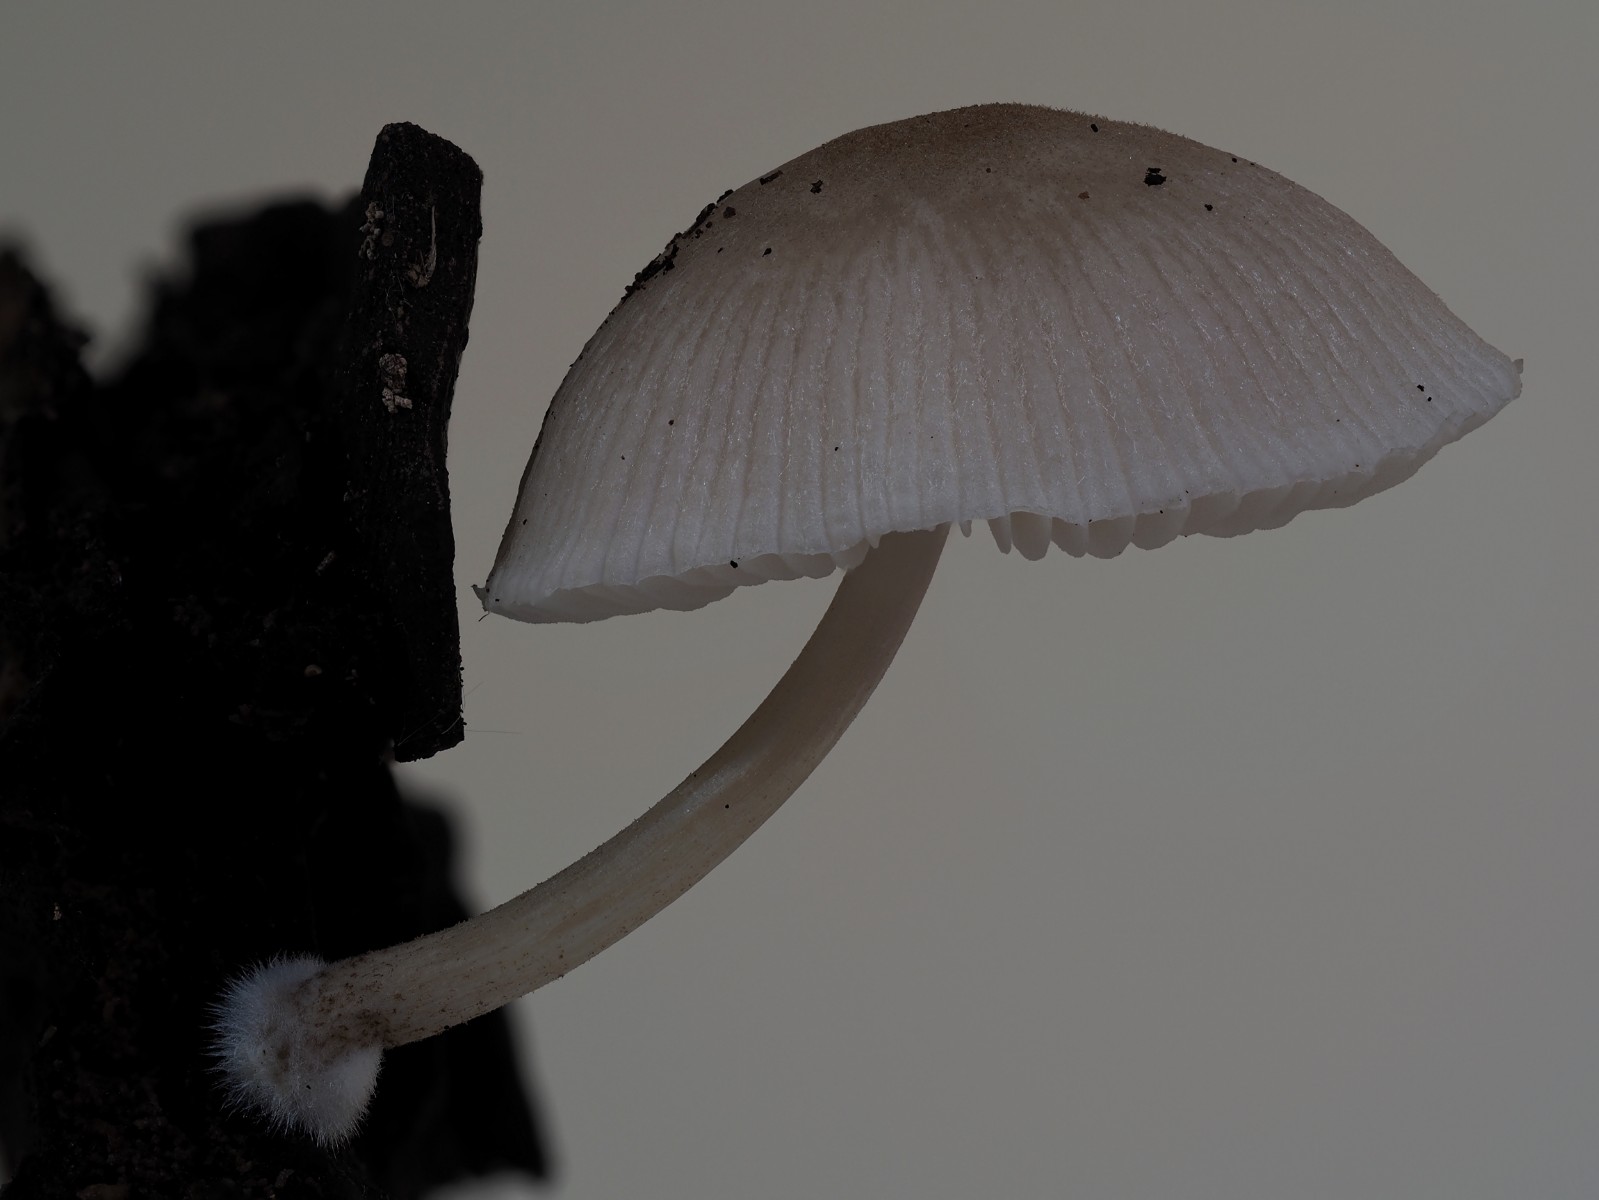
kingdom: Fungi
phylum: Basidiomycota
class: Agaricomycetes
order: Agaricales
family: Pluteaceae
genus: Pluteus
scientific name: Pluteus longistriatus
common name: hjul-skærmhat
